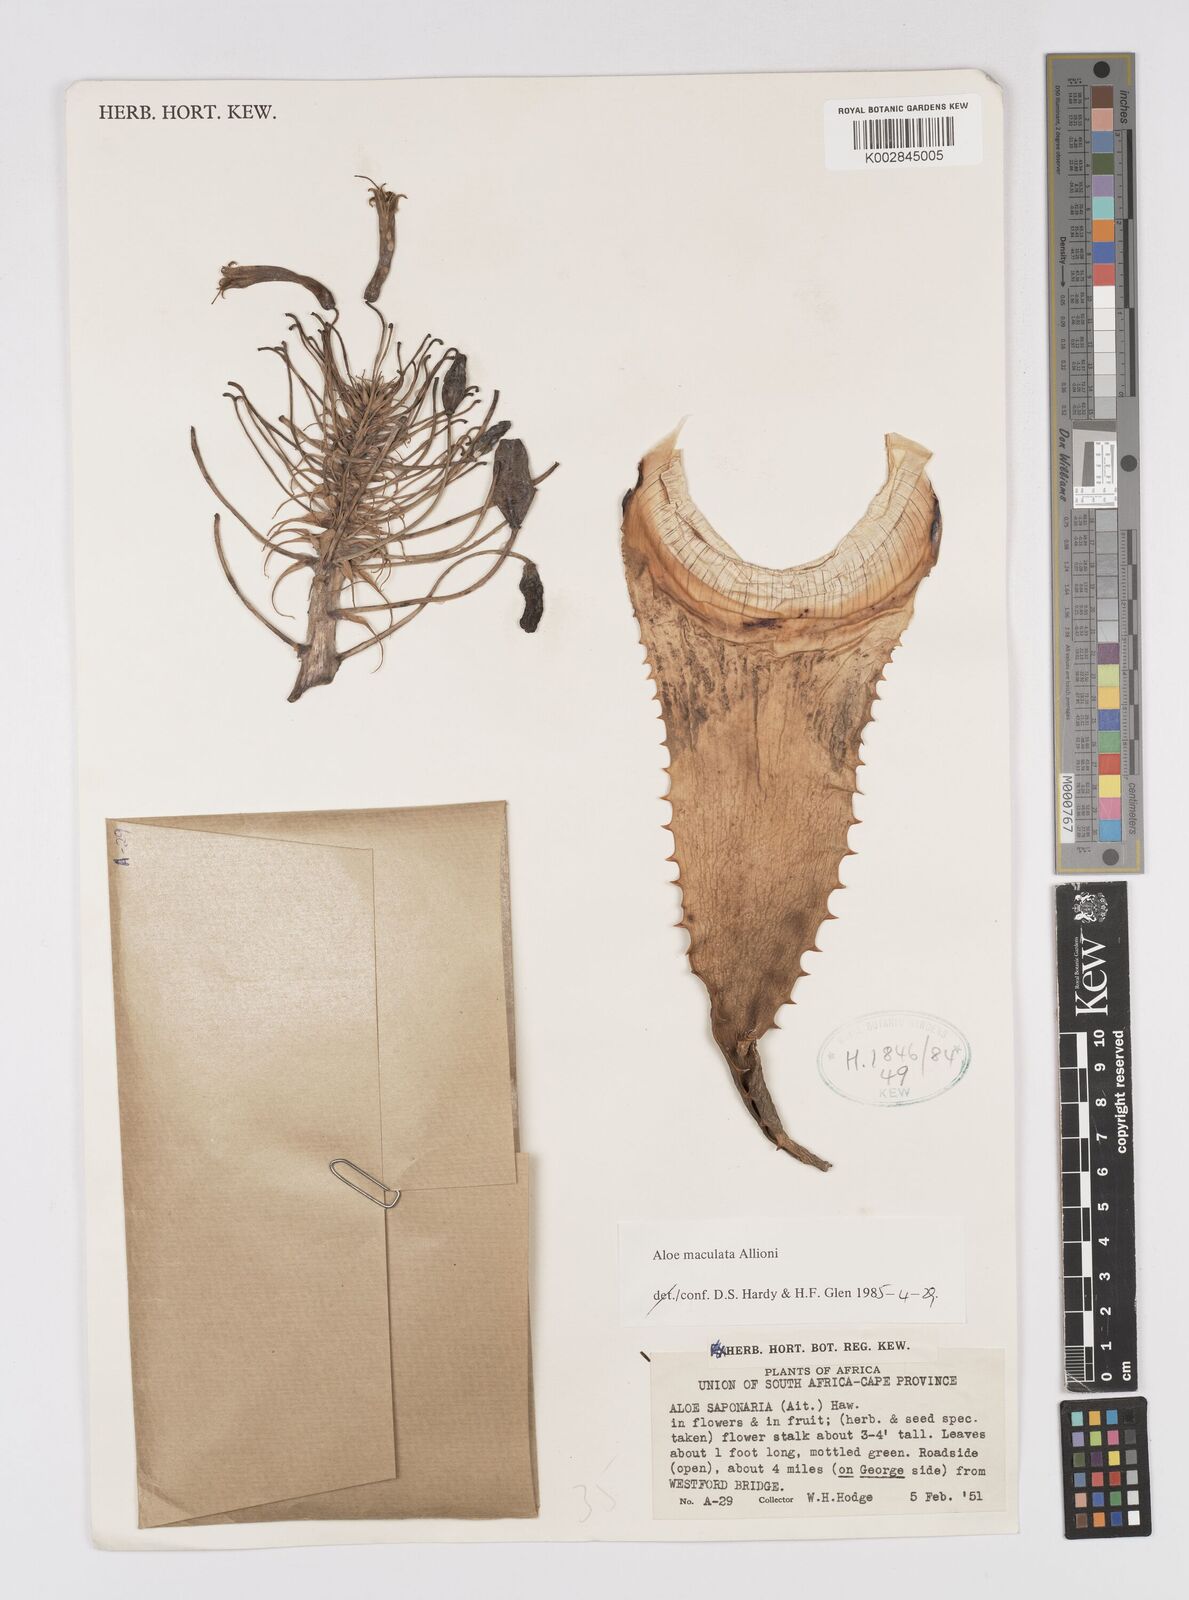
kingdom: Plantae
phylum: Tracheophyta
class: Liliopsida
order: Asparagales
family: Asphodelaceae
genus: Aloe
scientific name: Aloe microstigma
